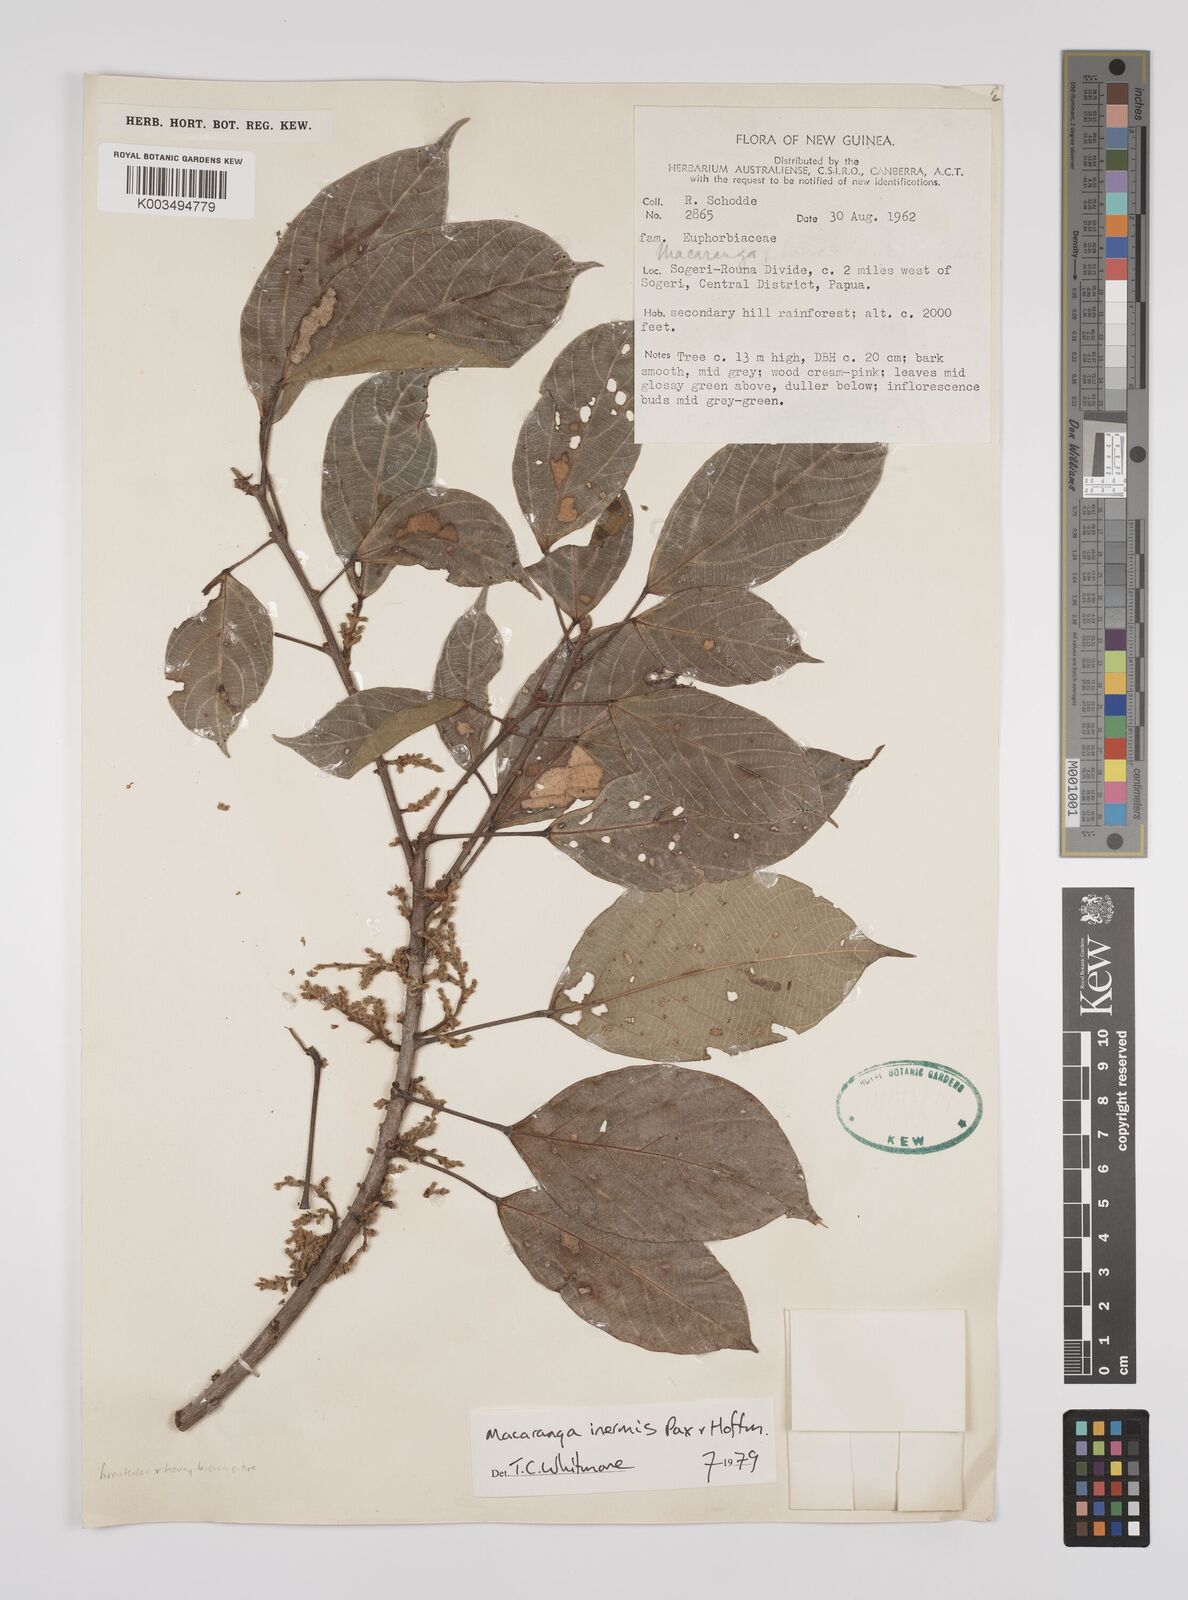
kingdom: Plantae
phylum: Tracheophyta
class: Magnoliopsida
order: Malpighiales
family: Euphorbiaceae
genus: Macaranga
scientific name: Macaranga inermis
